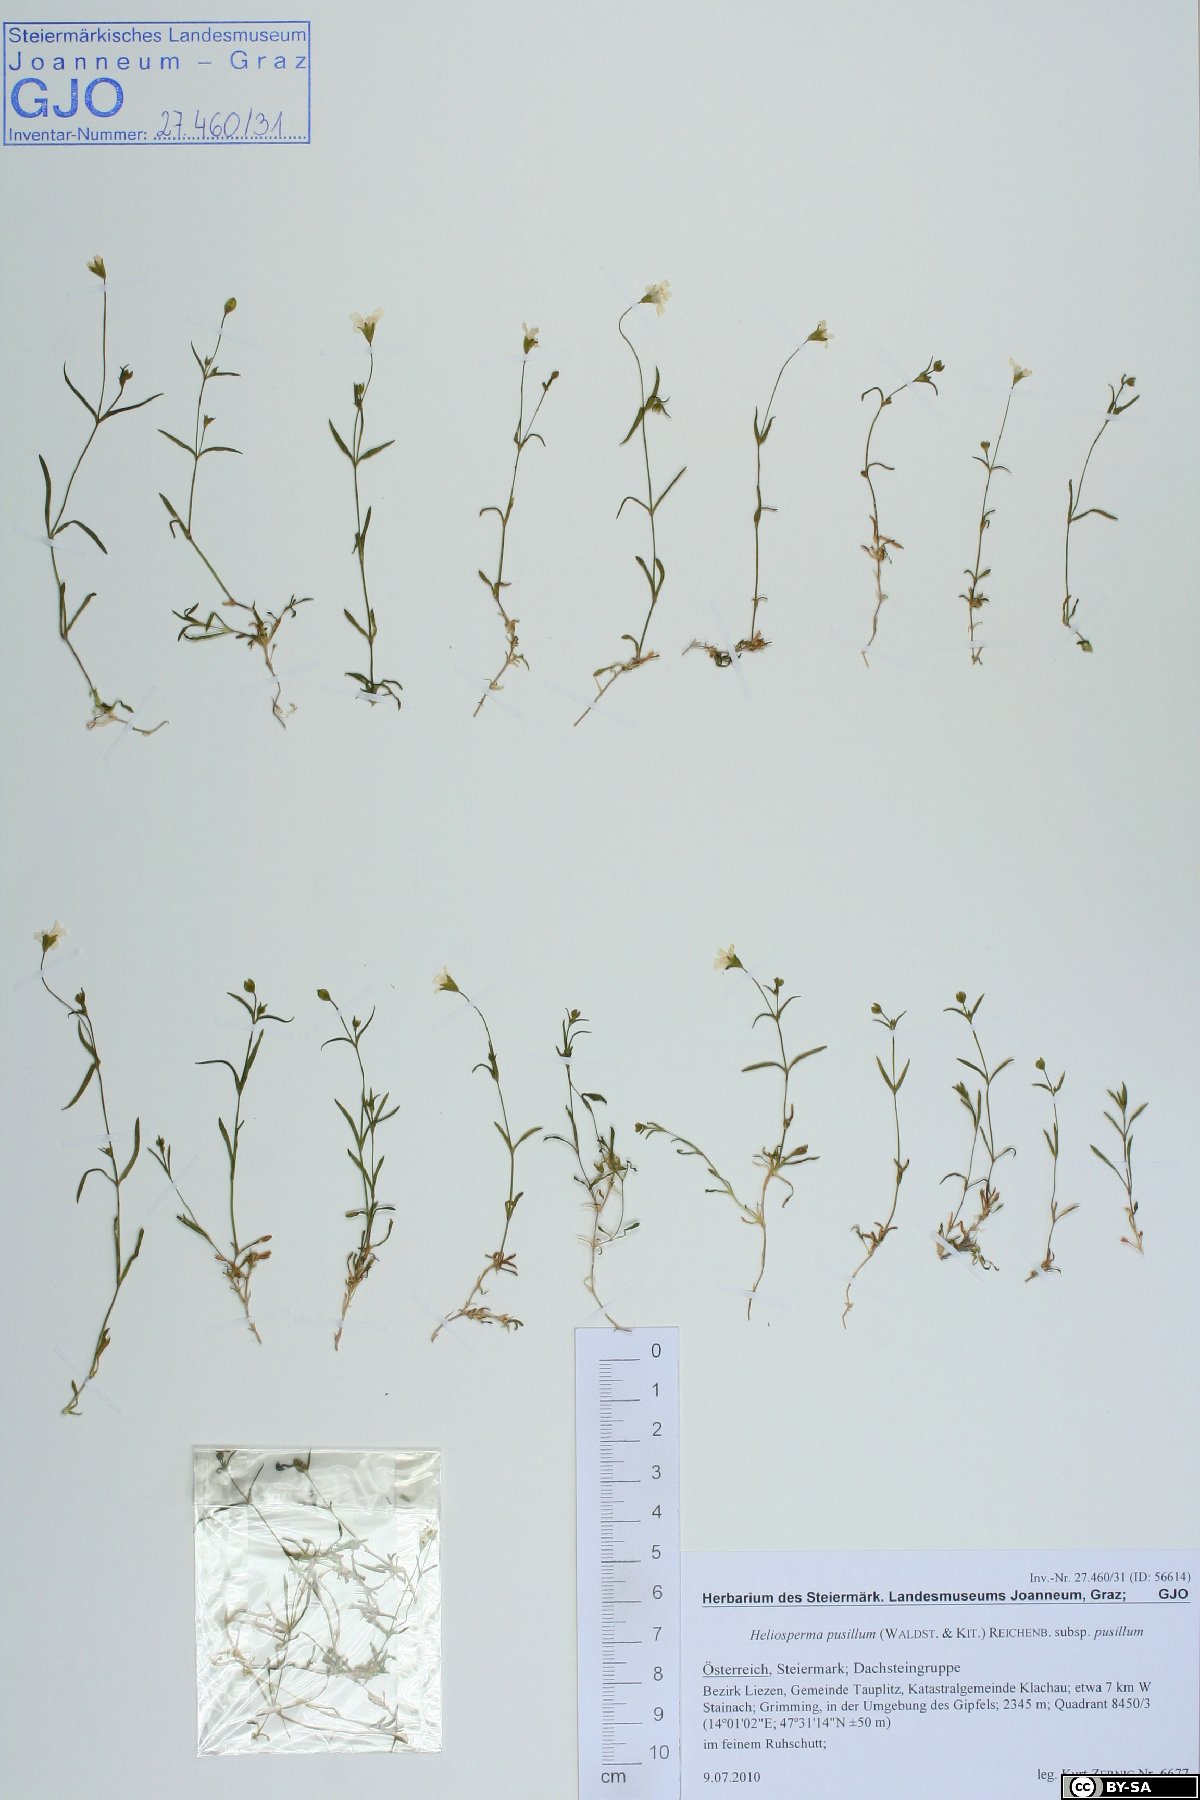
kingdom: Plantae
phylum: Tracheophyta
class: Magnoliopsida
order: Caryophyllales
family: Caryophyllaceae
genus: Heliosperma
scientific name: Heliosperma pusillum
